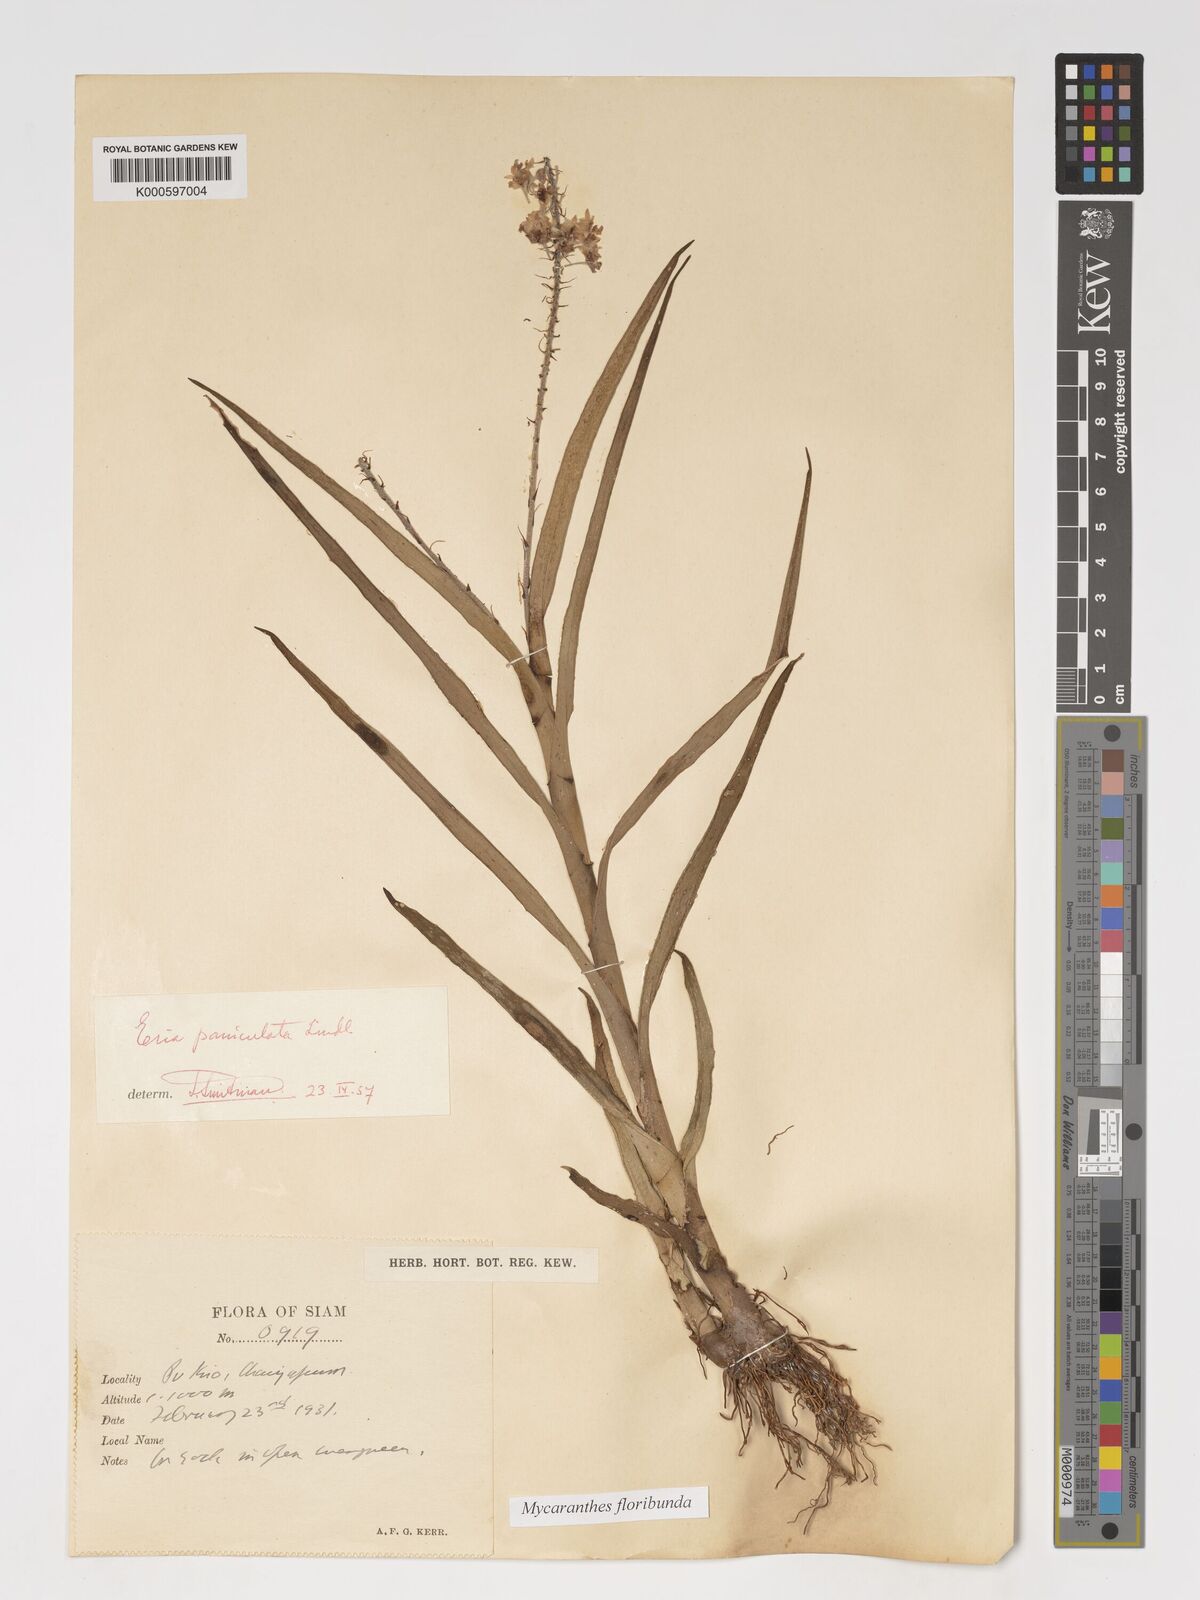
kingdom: Plantae
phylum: Tracheophyta
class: Liliopsida
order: Asparagales
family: Orchidaceae
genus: Mycaranthes
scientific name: Mycaranthes floribunda
